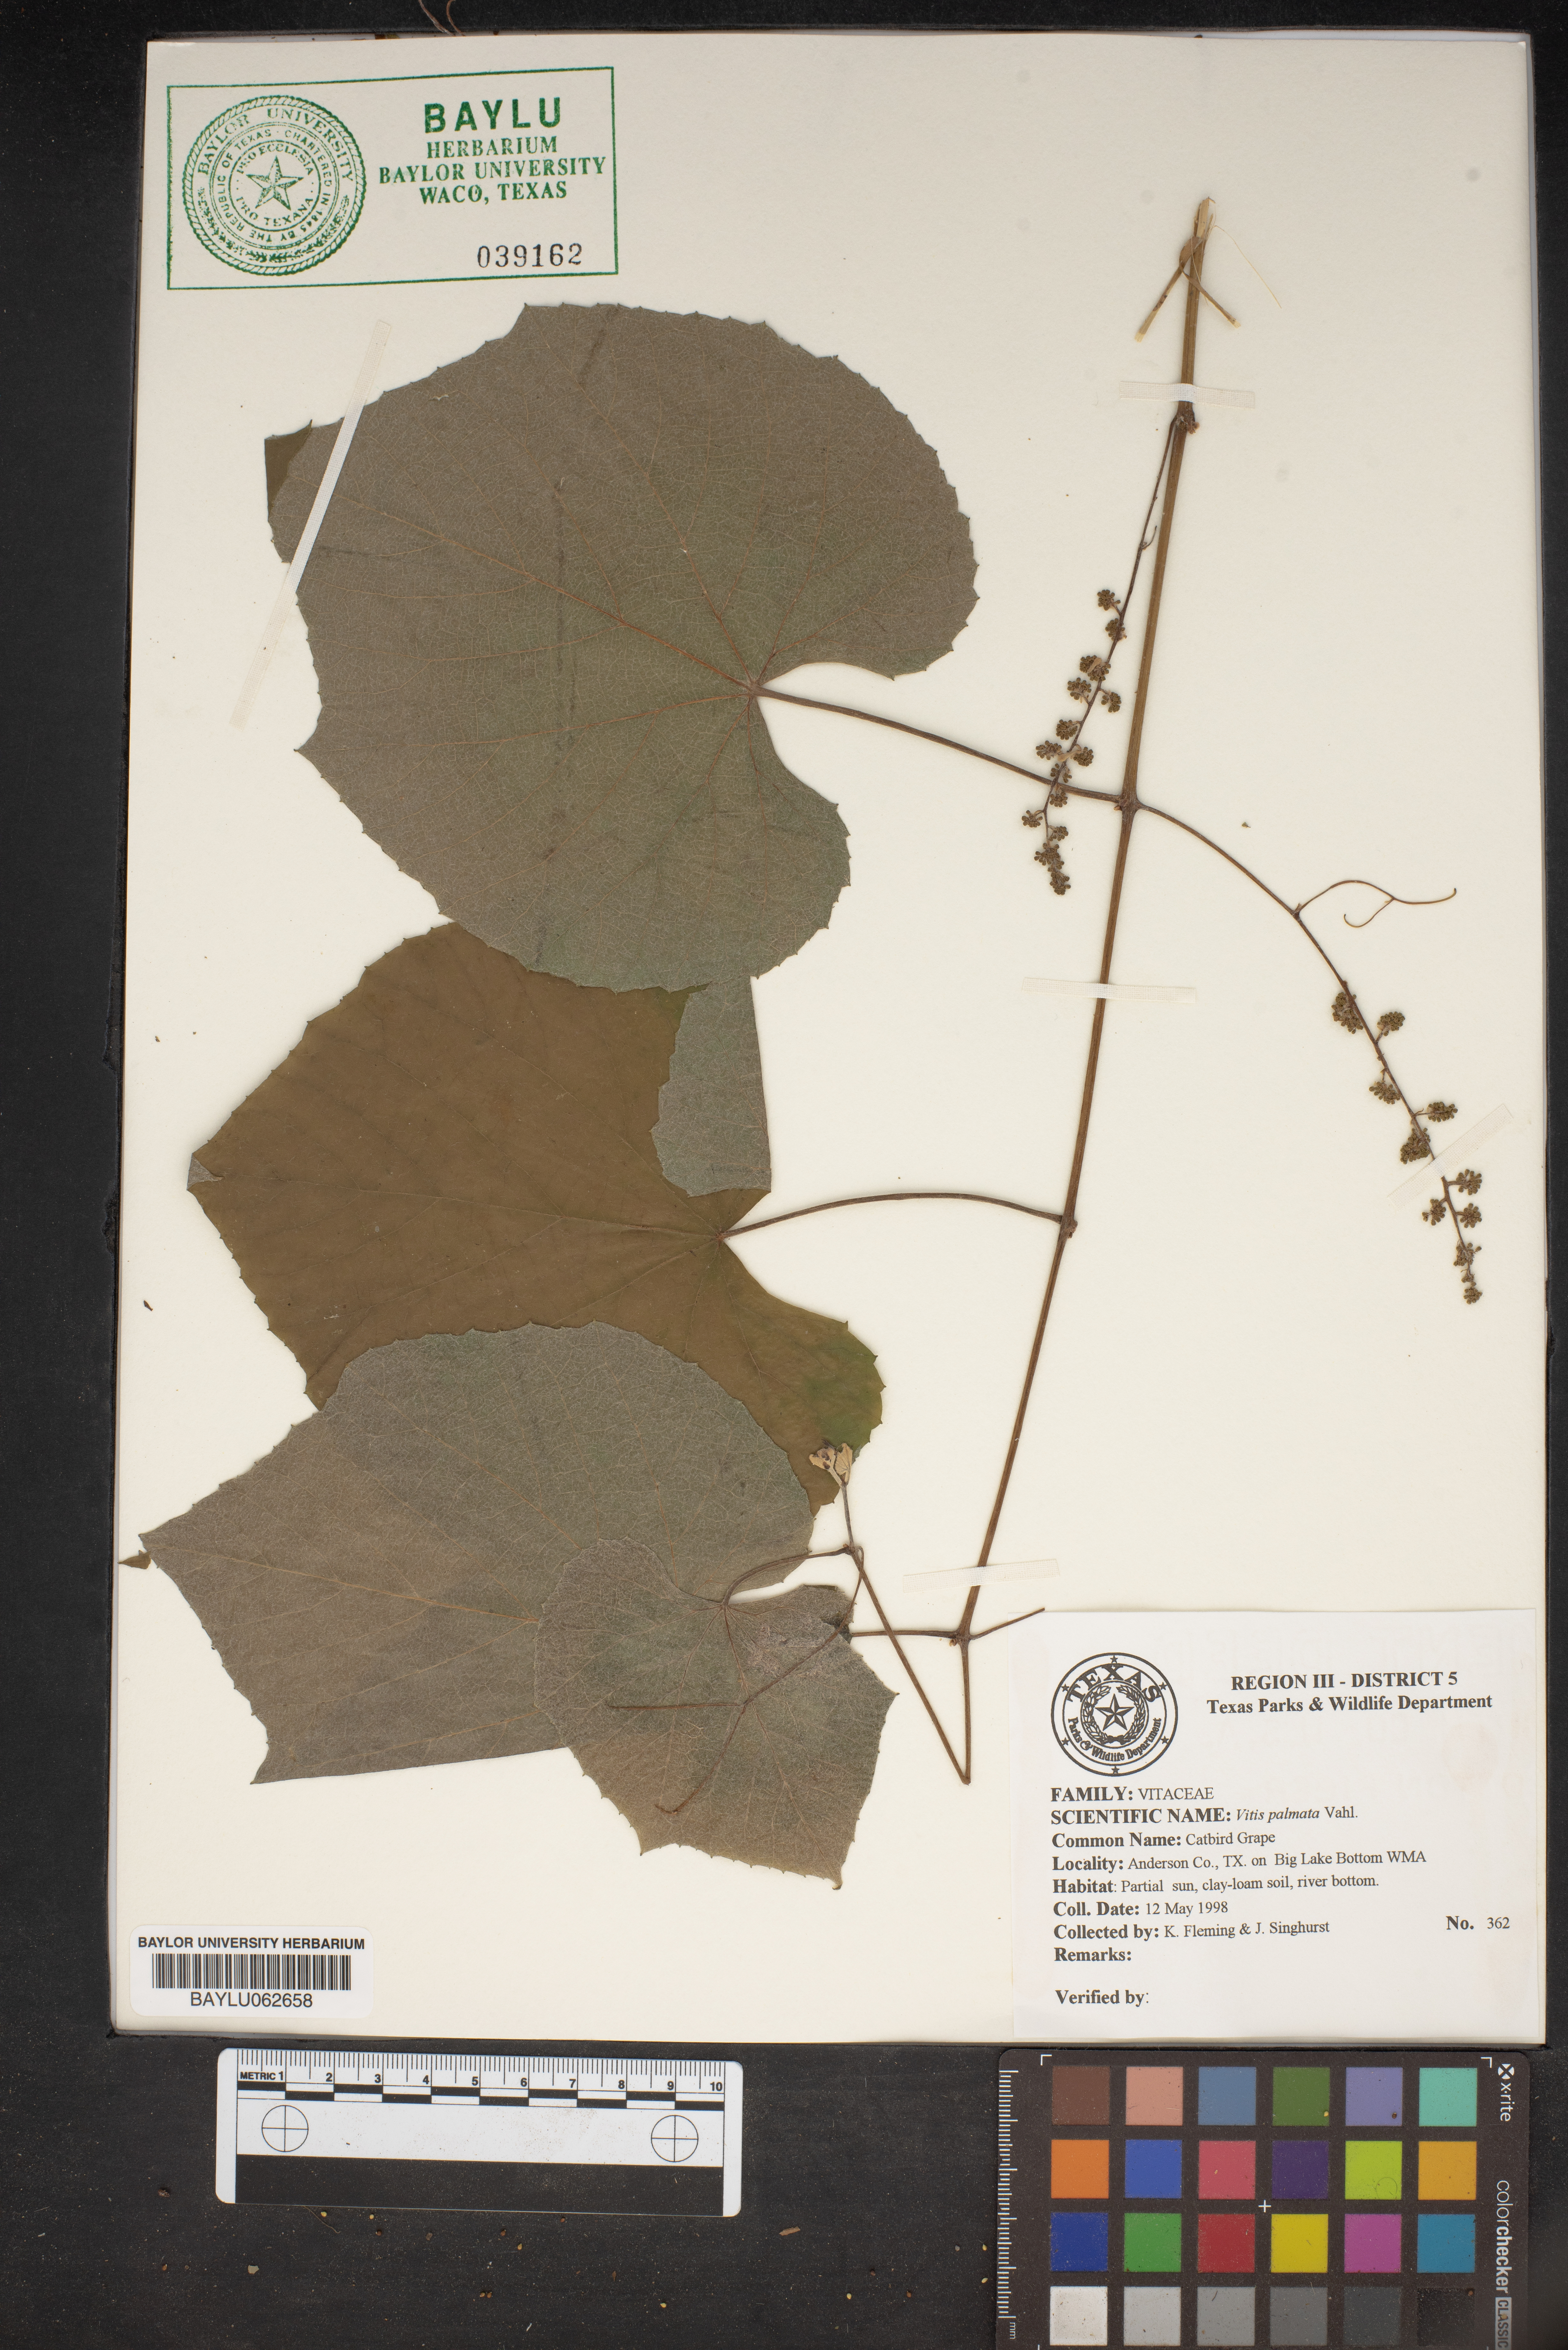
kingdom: Plantae
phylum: Tracheophyta
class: Magnoliopsida
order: Vitales
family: Vitaceae
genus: Vitis
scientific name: Vitis palmata
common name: Catbird grape
